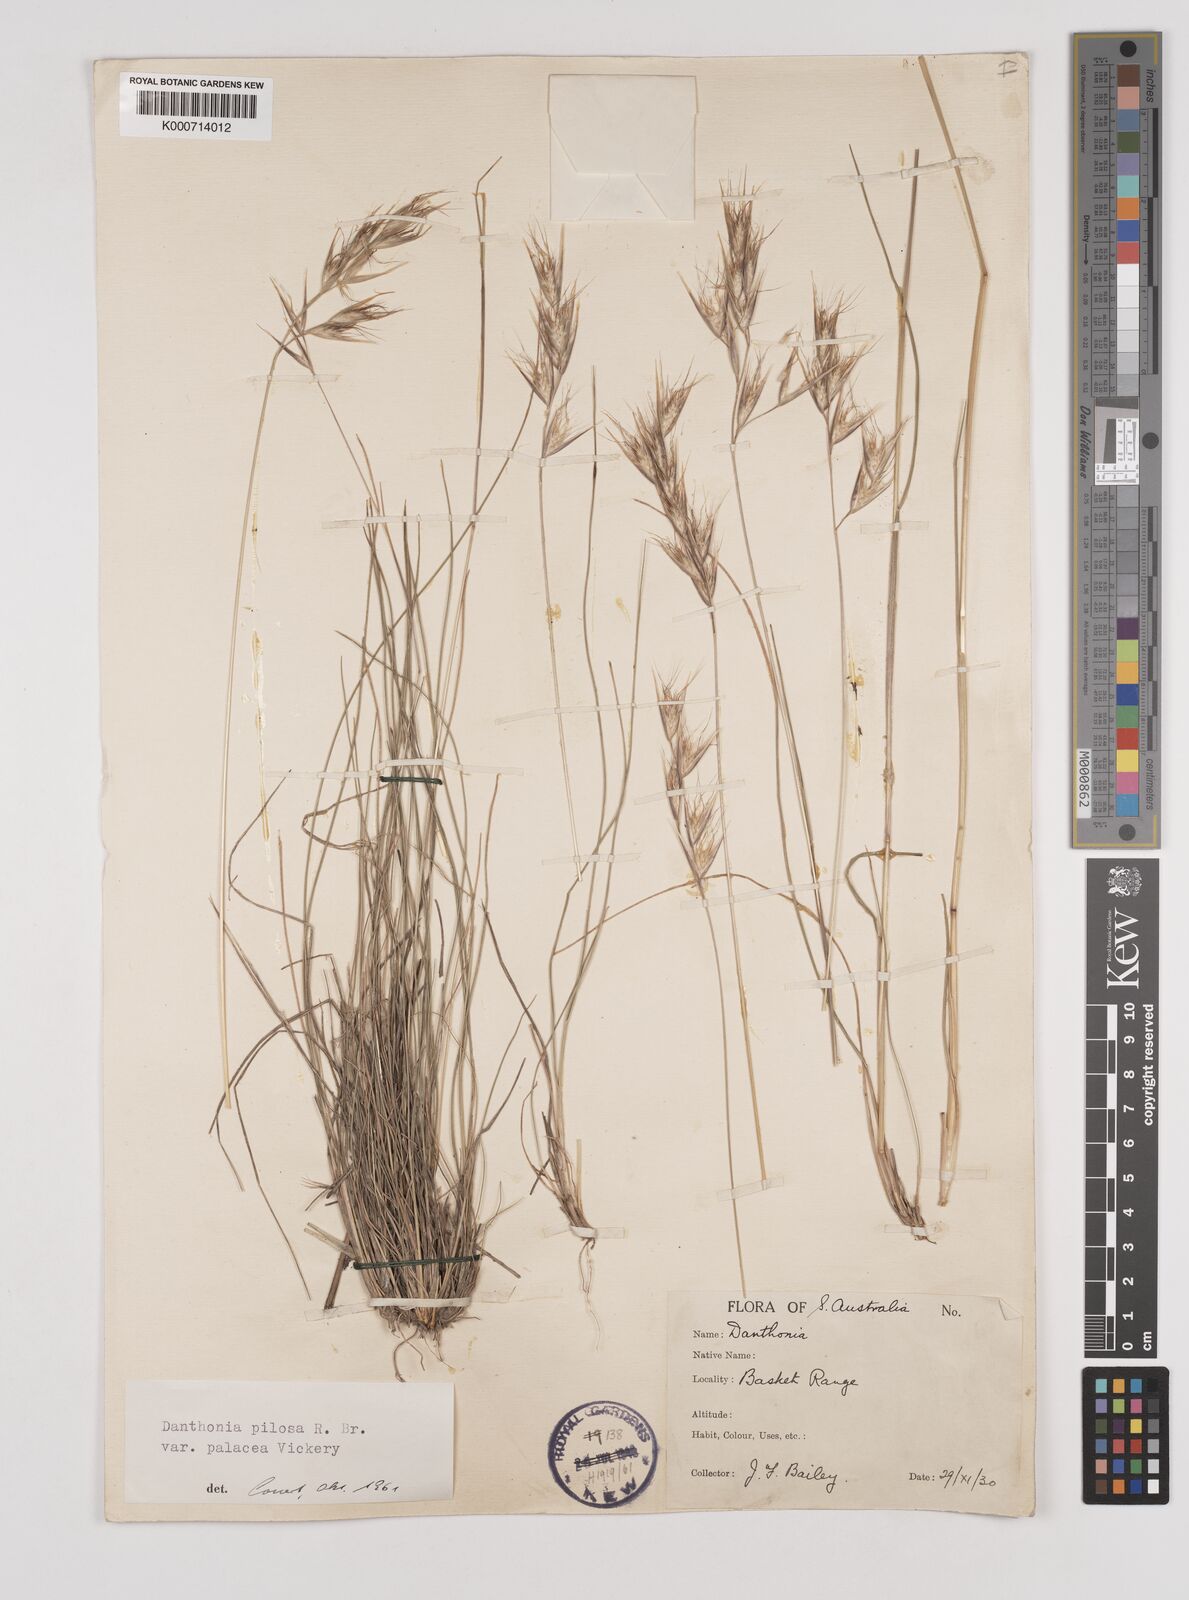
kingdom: Plantae
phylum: Tracheophyta
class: Liliopsida
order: Poales
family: Poaceae
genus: Rytidosperma
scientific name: Rytidosperma pilosum
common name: Hairy wallaby grass
